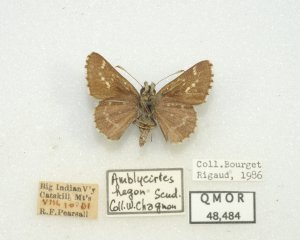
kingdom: Animalia
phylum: Arthropoda
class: Insecta
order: Lepidoptera
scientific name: Lepidoptera
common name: Butterflies
